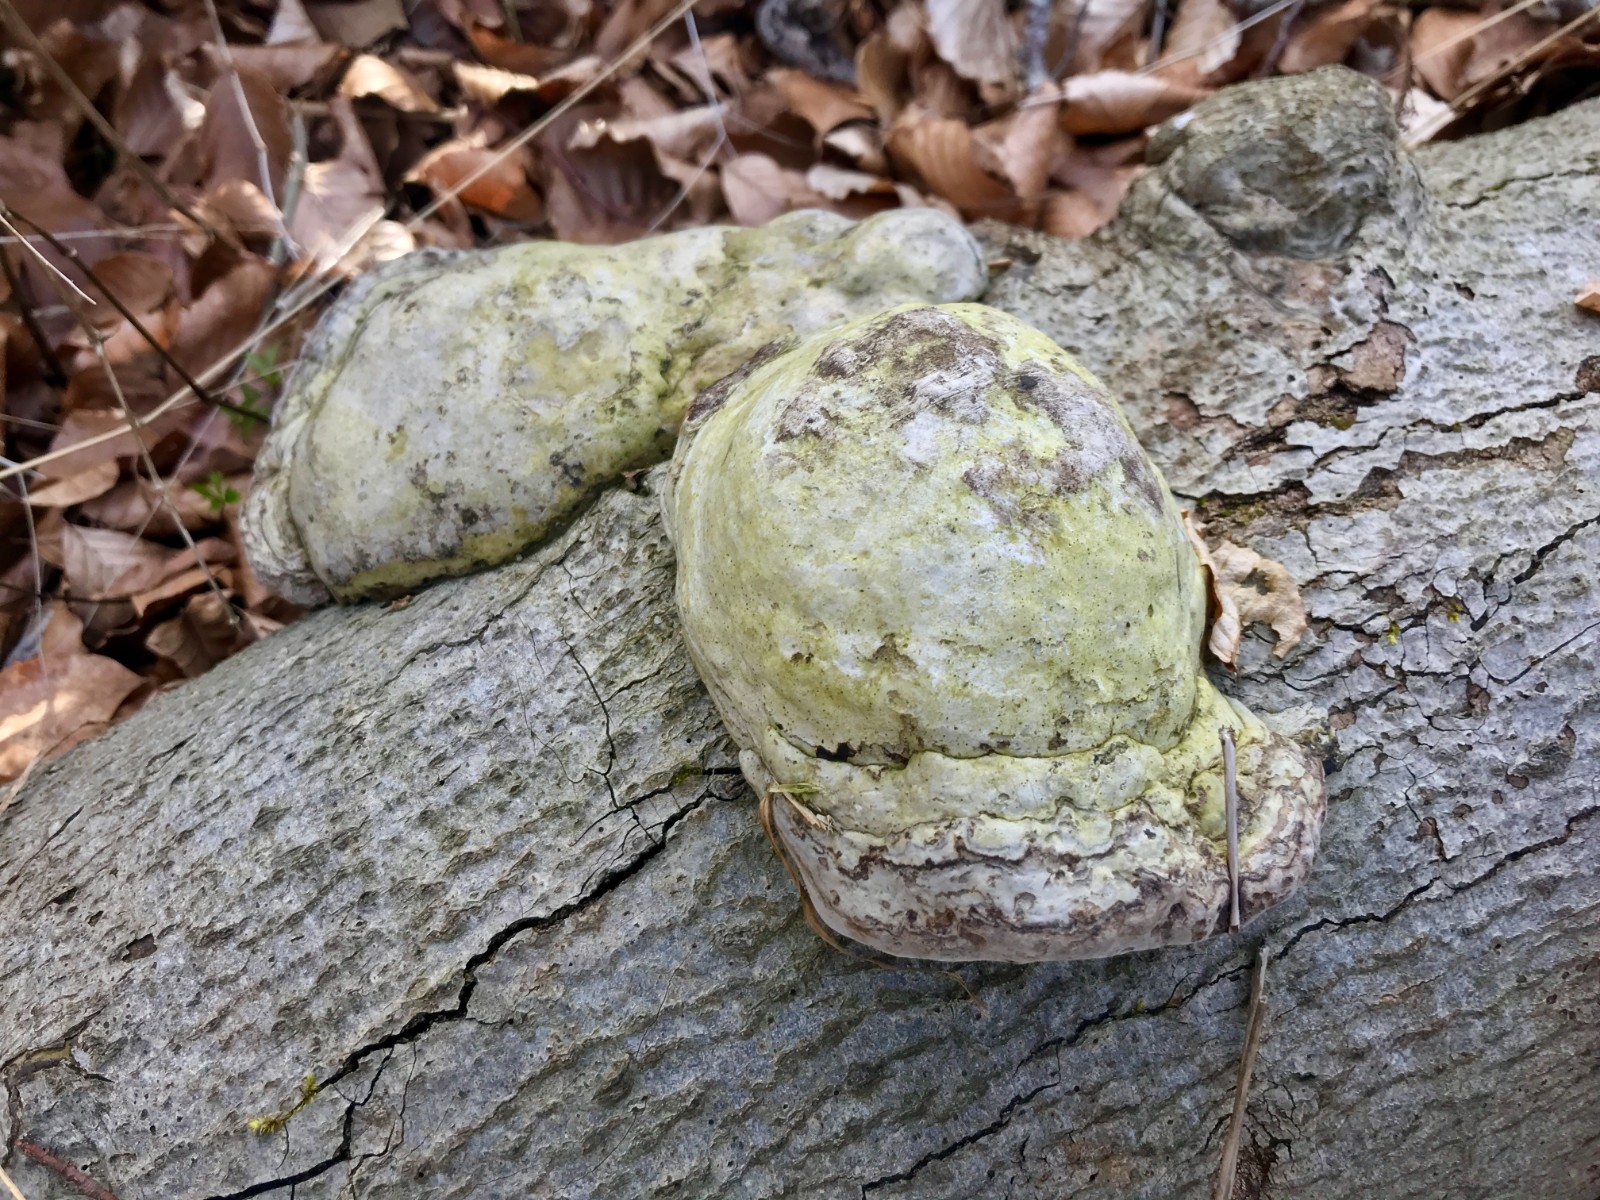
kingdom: Fungi
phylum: Basidiomycota
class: Agaricomycetes
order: Polyporales
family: Polyporaceae
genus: Fomes
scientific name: Fomes fomentarius
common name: tøndersvamp
